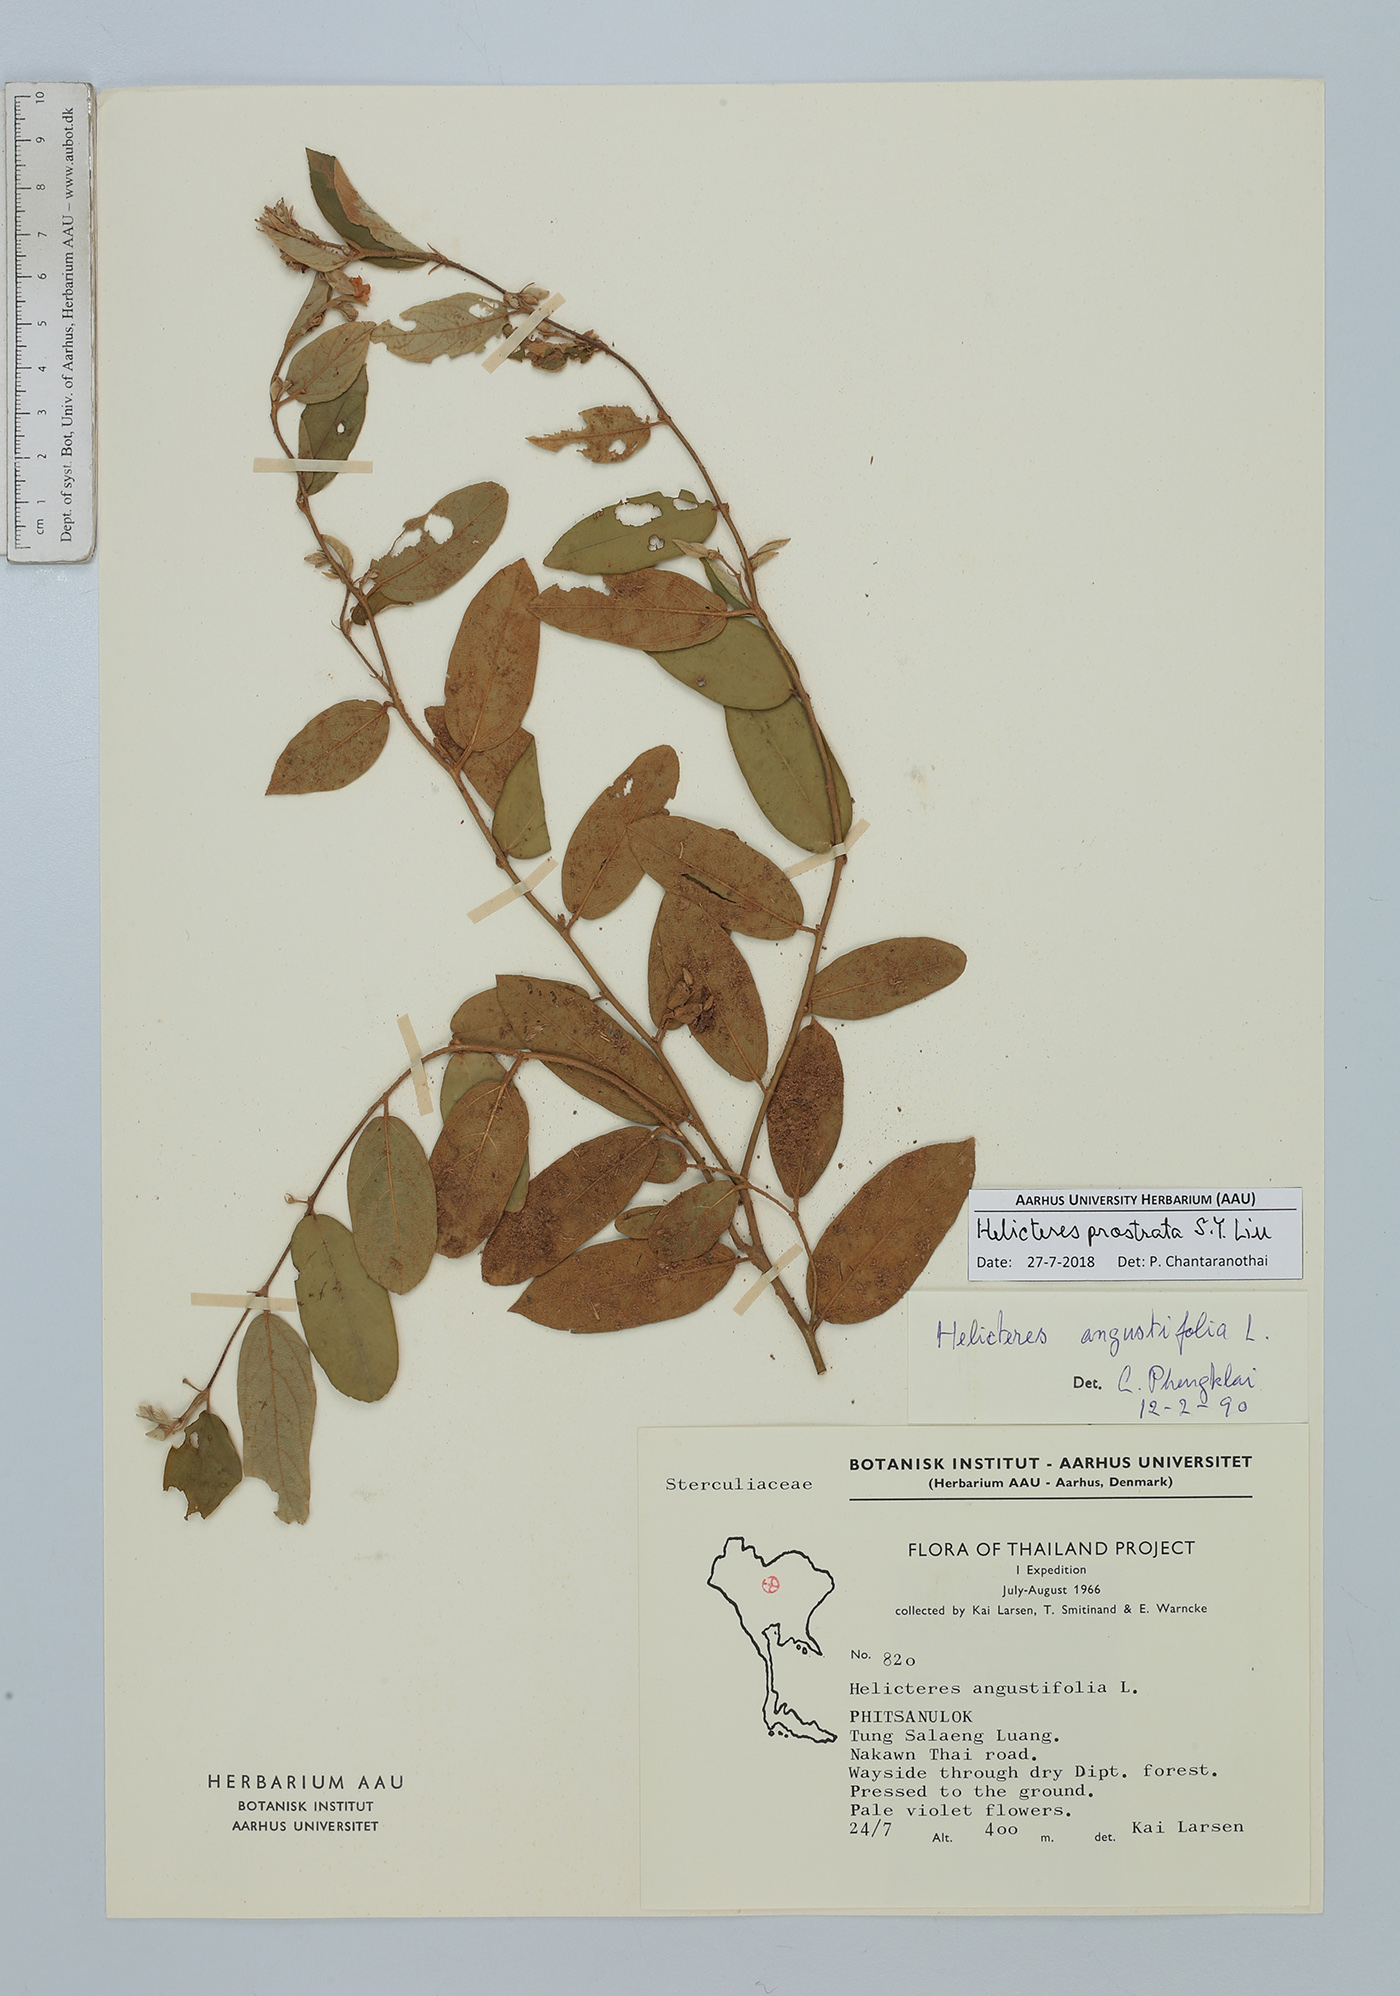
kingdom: Plantae
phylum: Tracheophyta
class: Magnoliopsida
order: Malvales
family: Malvaceae
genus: Helicteres
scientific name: Helicteres prostrata
